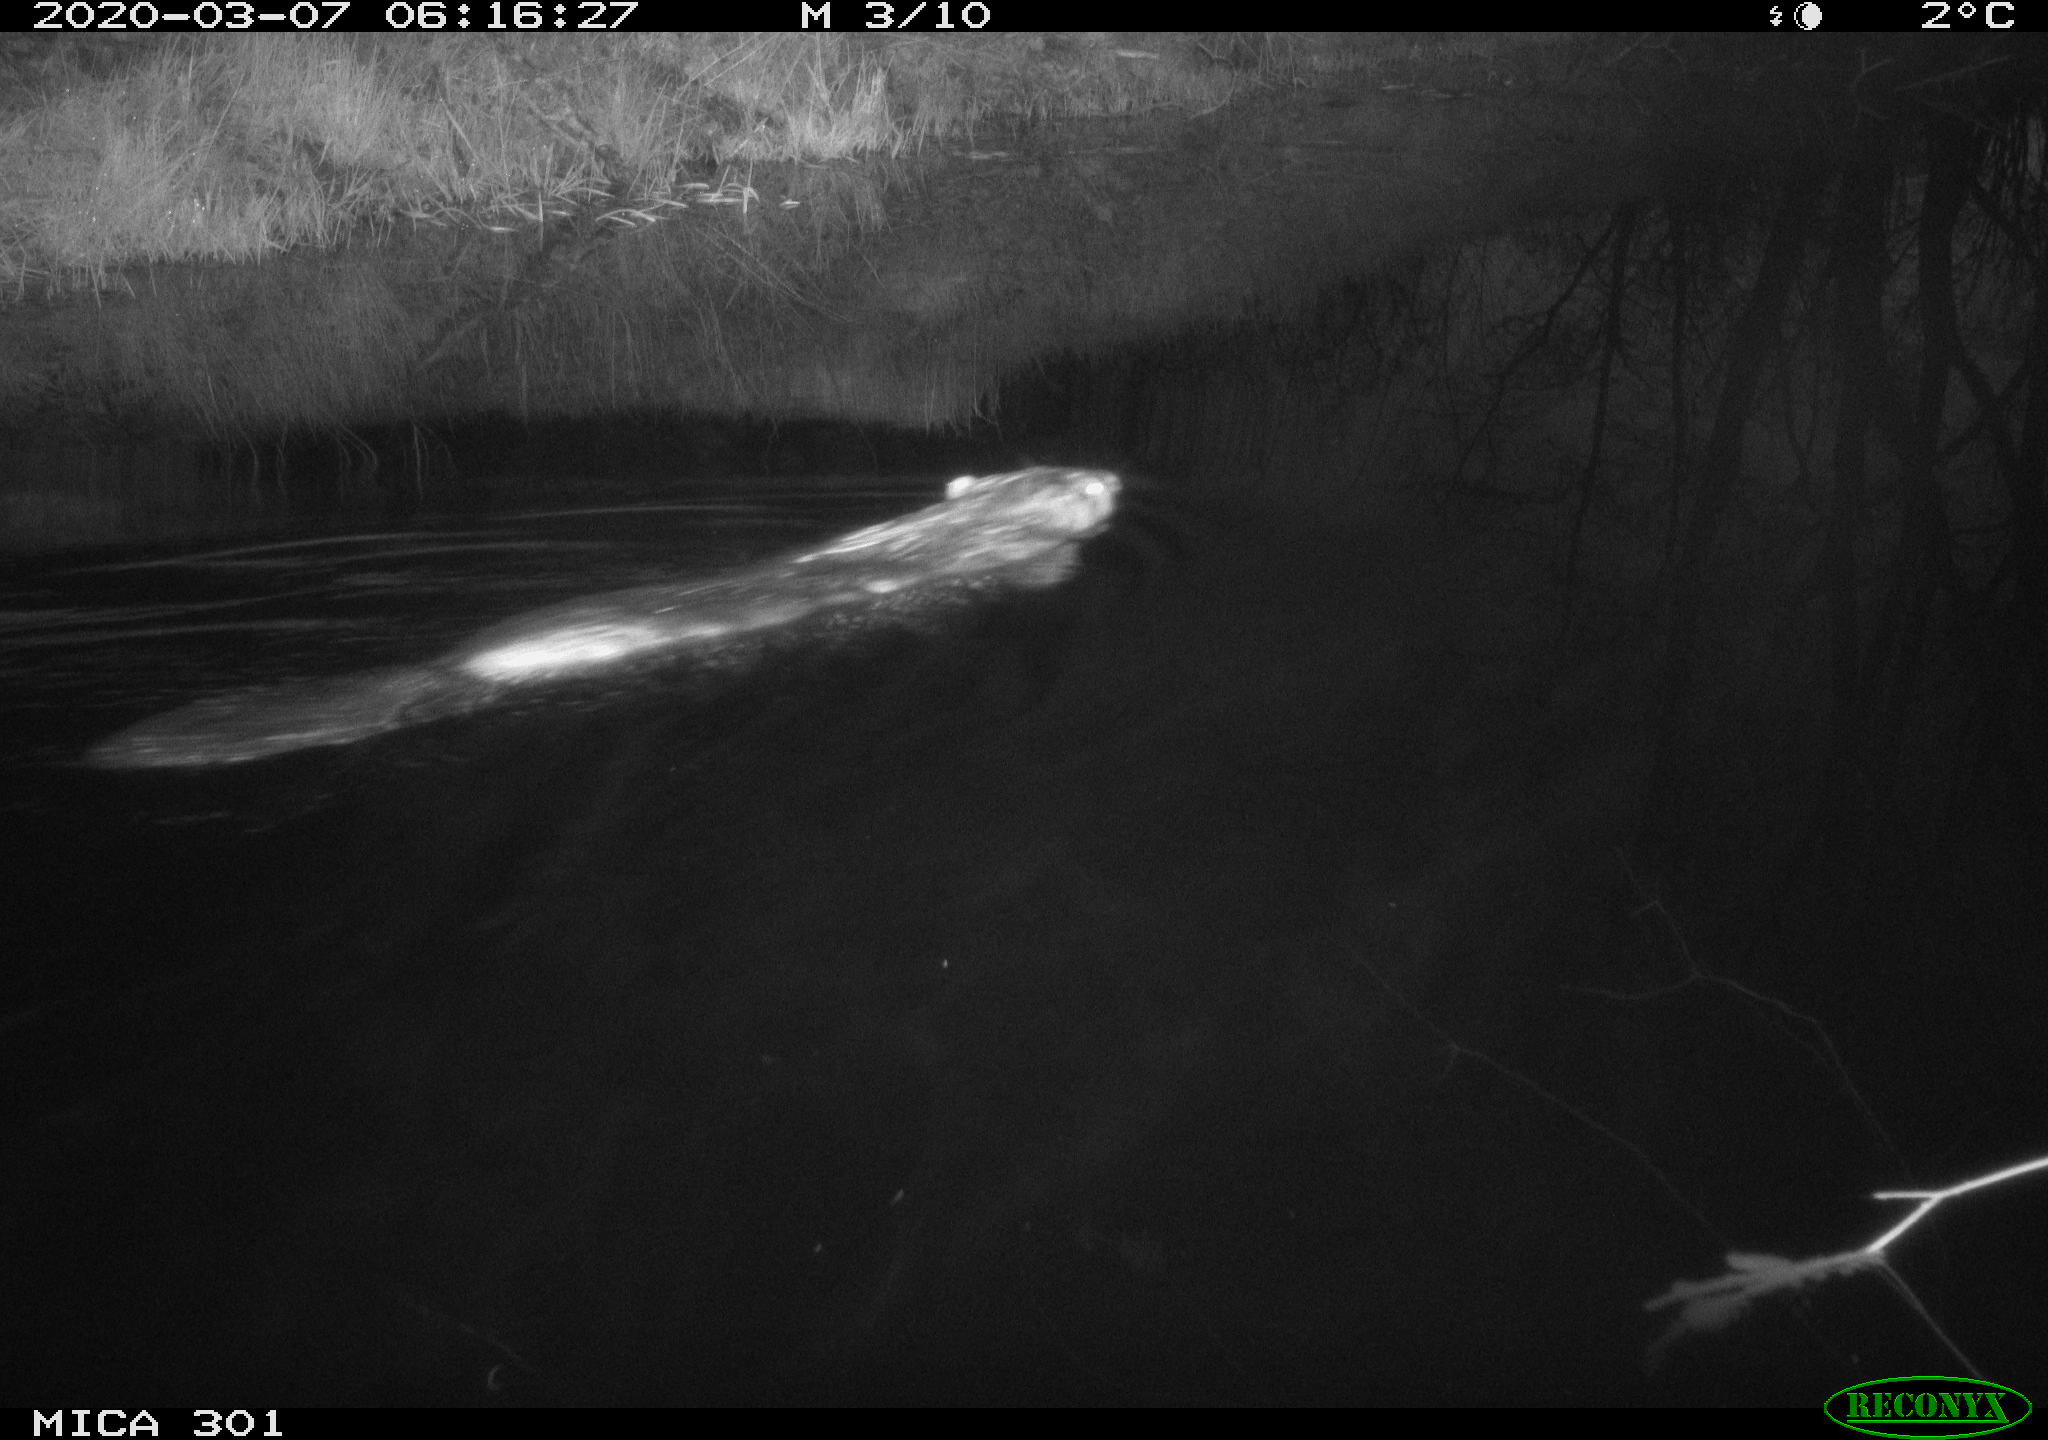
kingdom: Animalia
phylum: Chordata
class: Mammalia
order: Rodentia
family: Castoridae
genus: Castor
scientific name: Castor fiber
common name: Eurasian beaver
